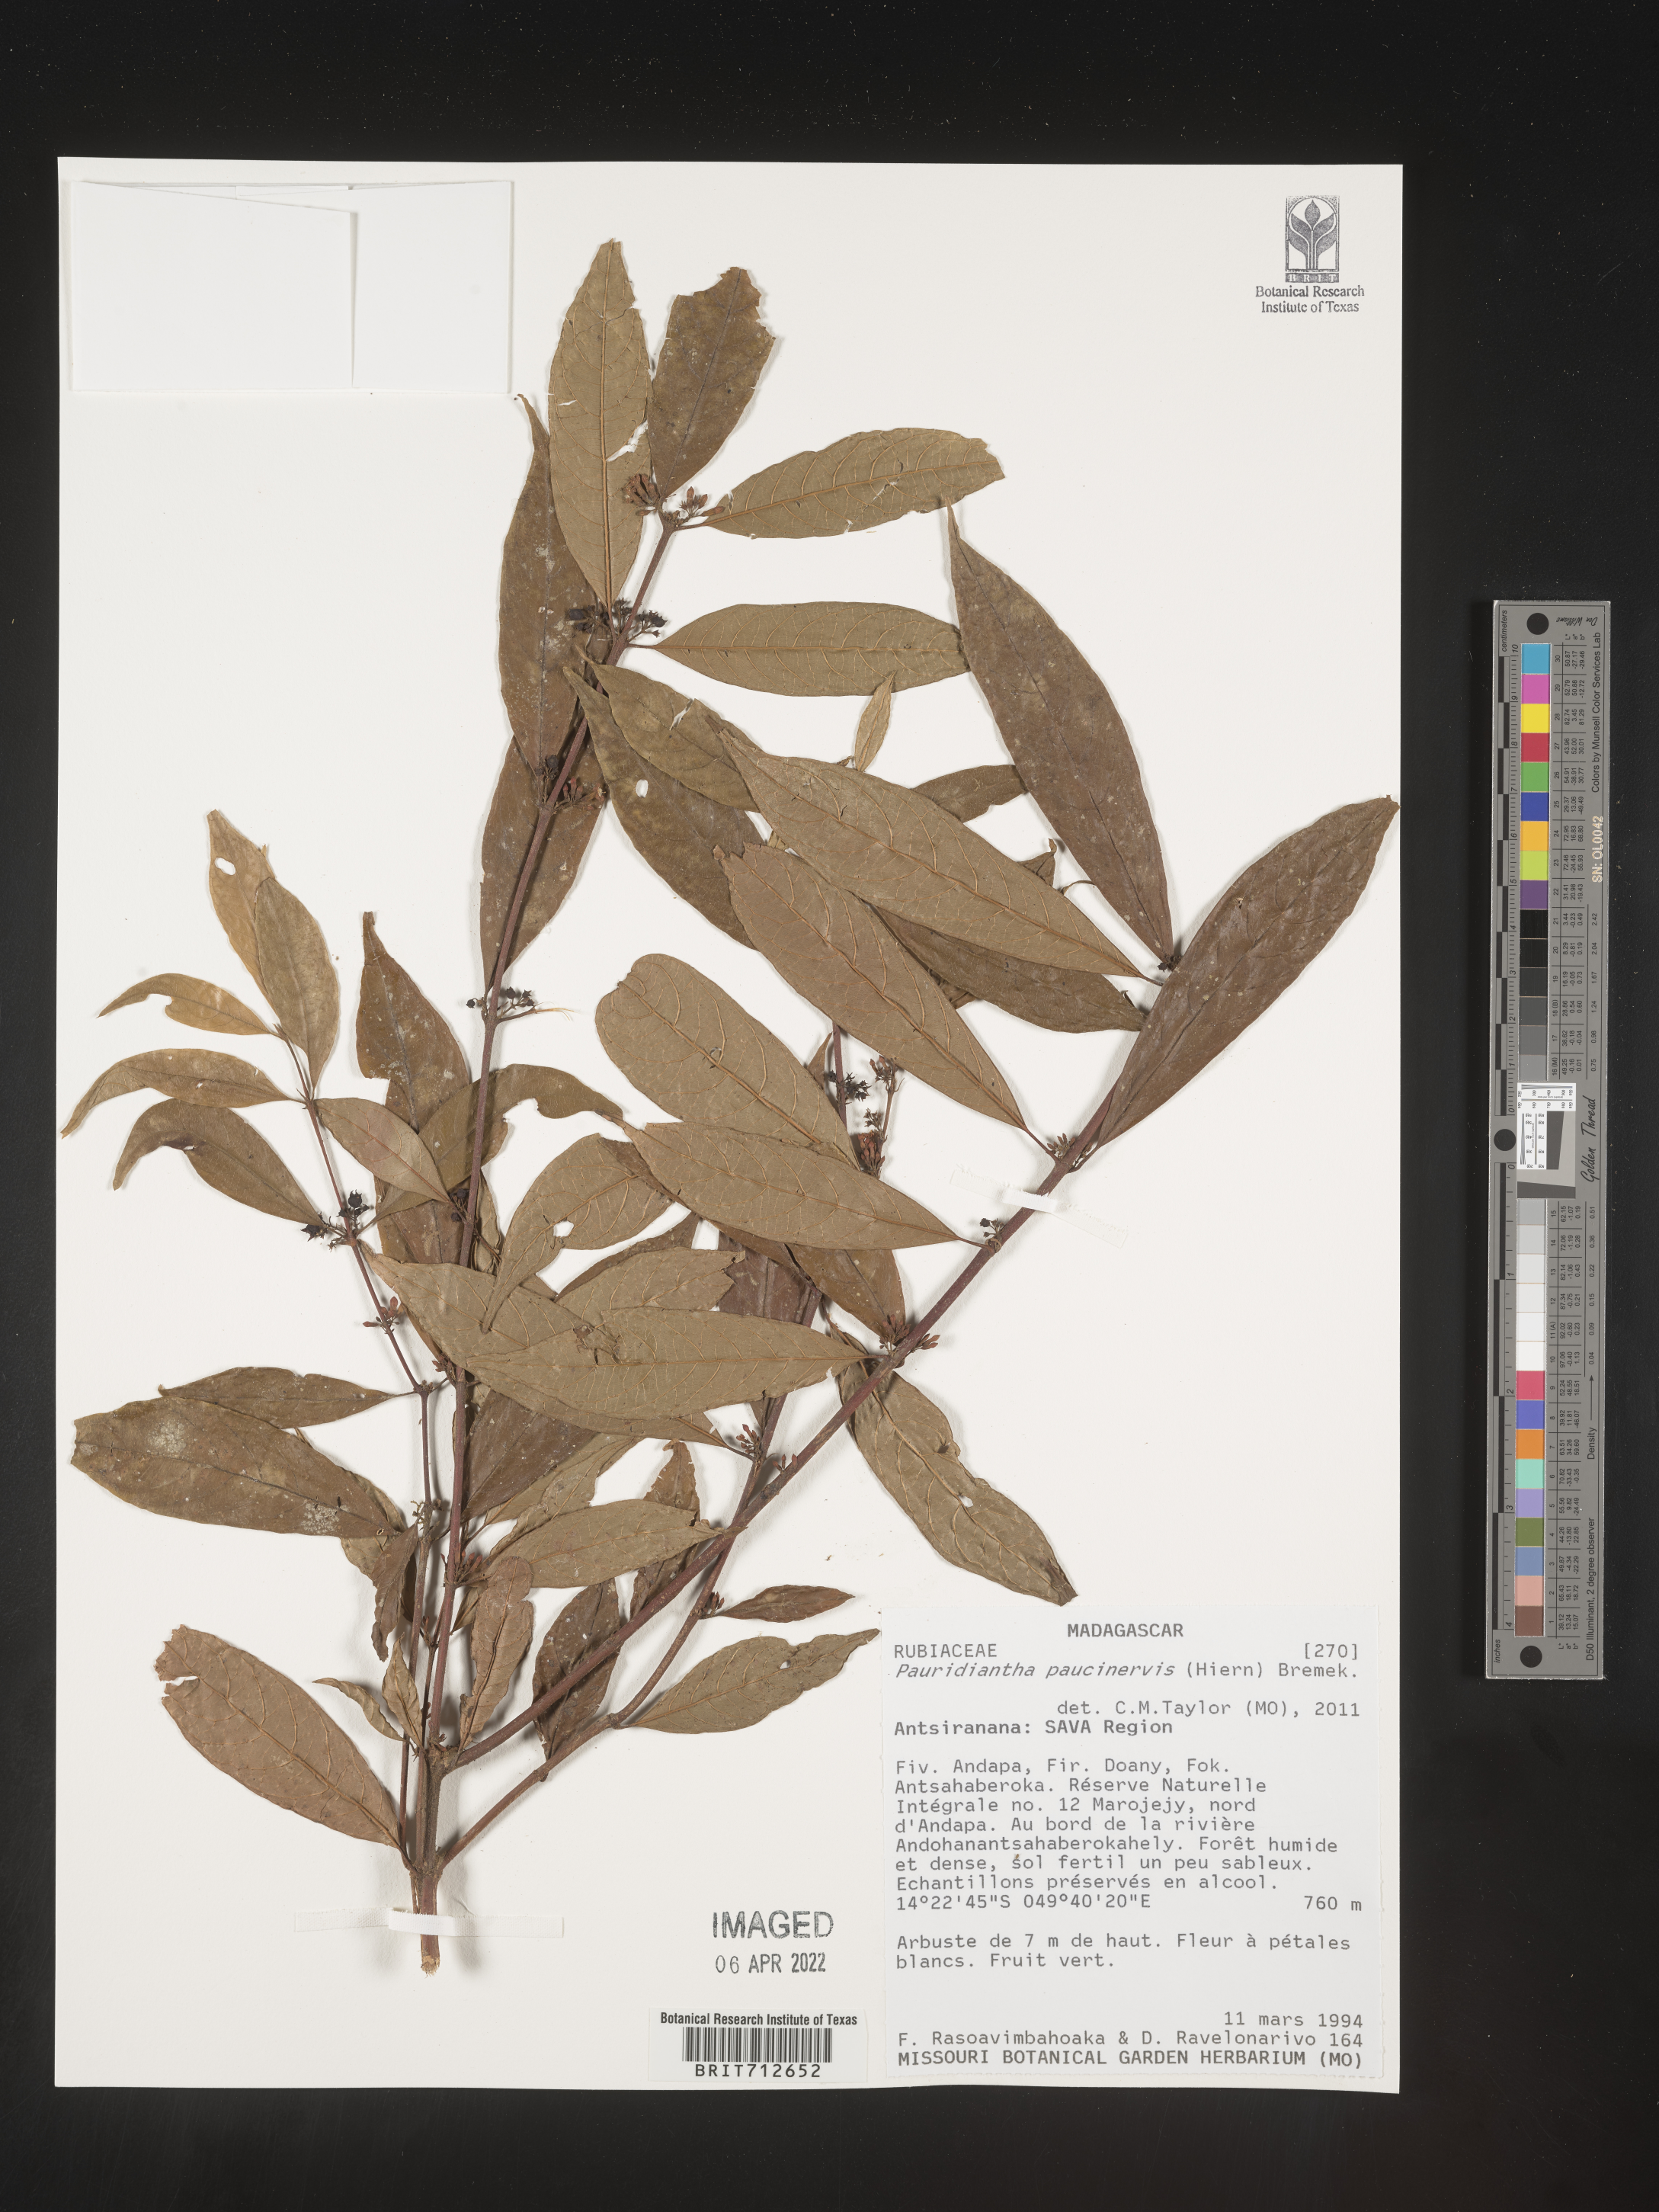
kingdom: Plantae
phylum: Tracheophyta
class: Magnoliopsida
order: Gentianales
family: Rubiaceae
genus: Pauridiantha
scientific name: Pauridiantha
